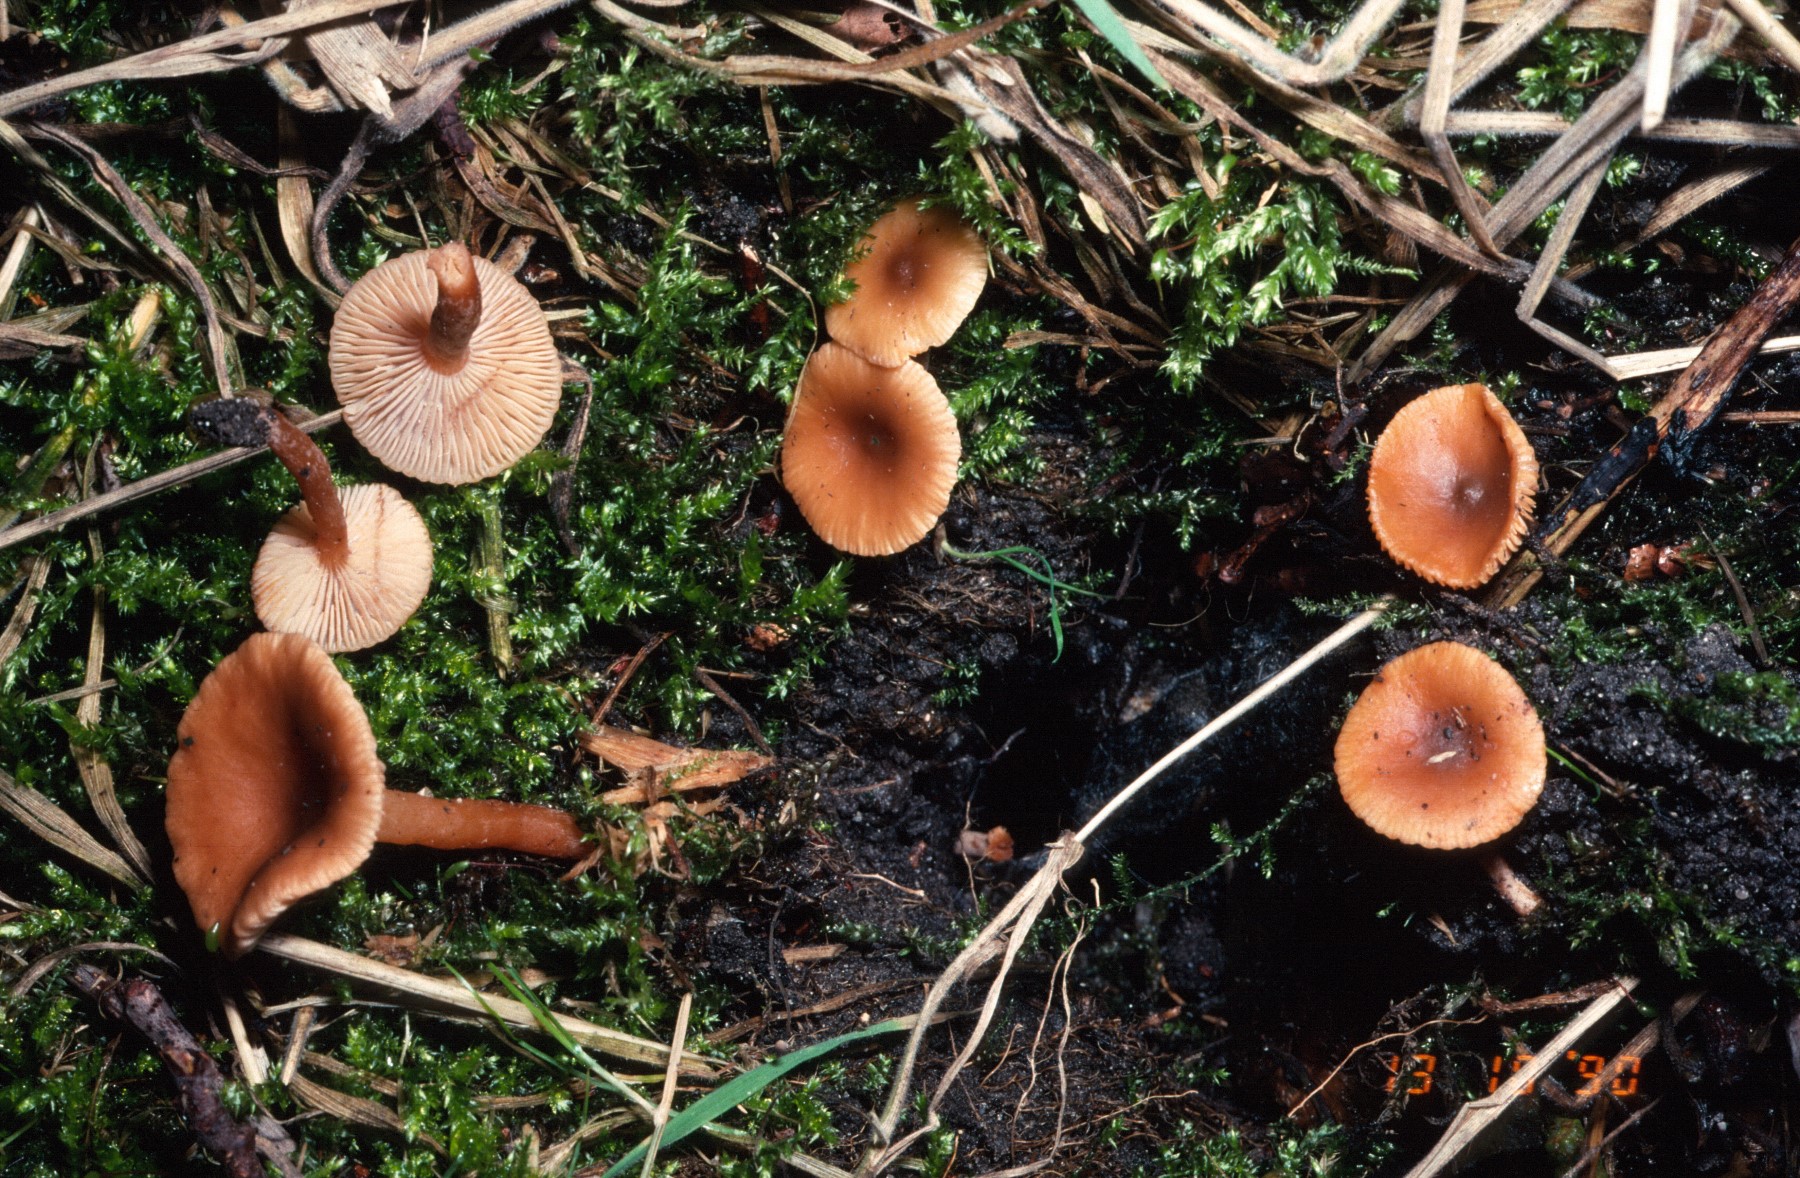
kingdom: Fungi
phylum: Basidiomycota
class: Agaricomycetes
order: Russulales
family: Russulaceae
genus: Lactarius
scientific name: Lactarius obscuratus
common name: elle-mælkehat
